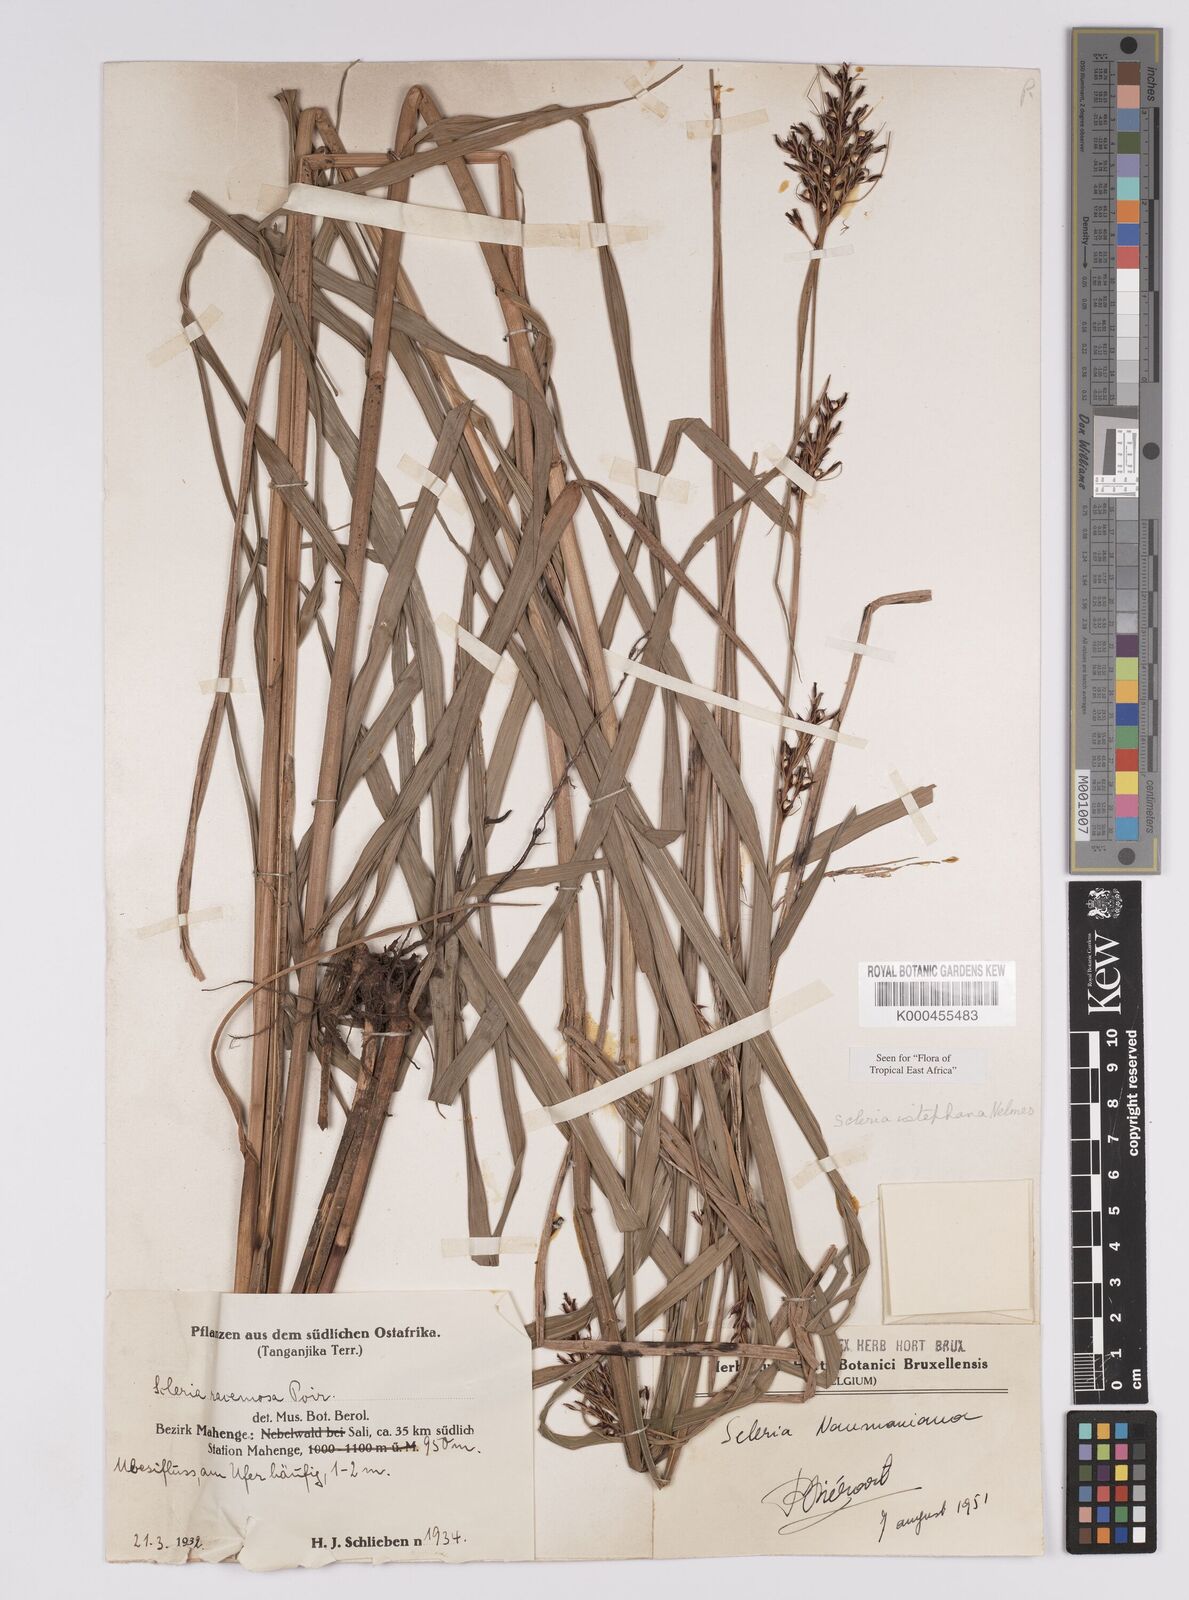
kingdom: Plantae
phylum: Tracheophyta
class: Liliopsida
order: Poales
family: Cyperaceae
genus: Scleria
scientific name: Scleria iostephana
